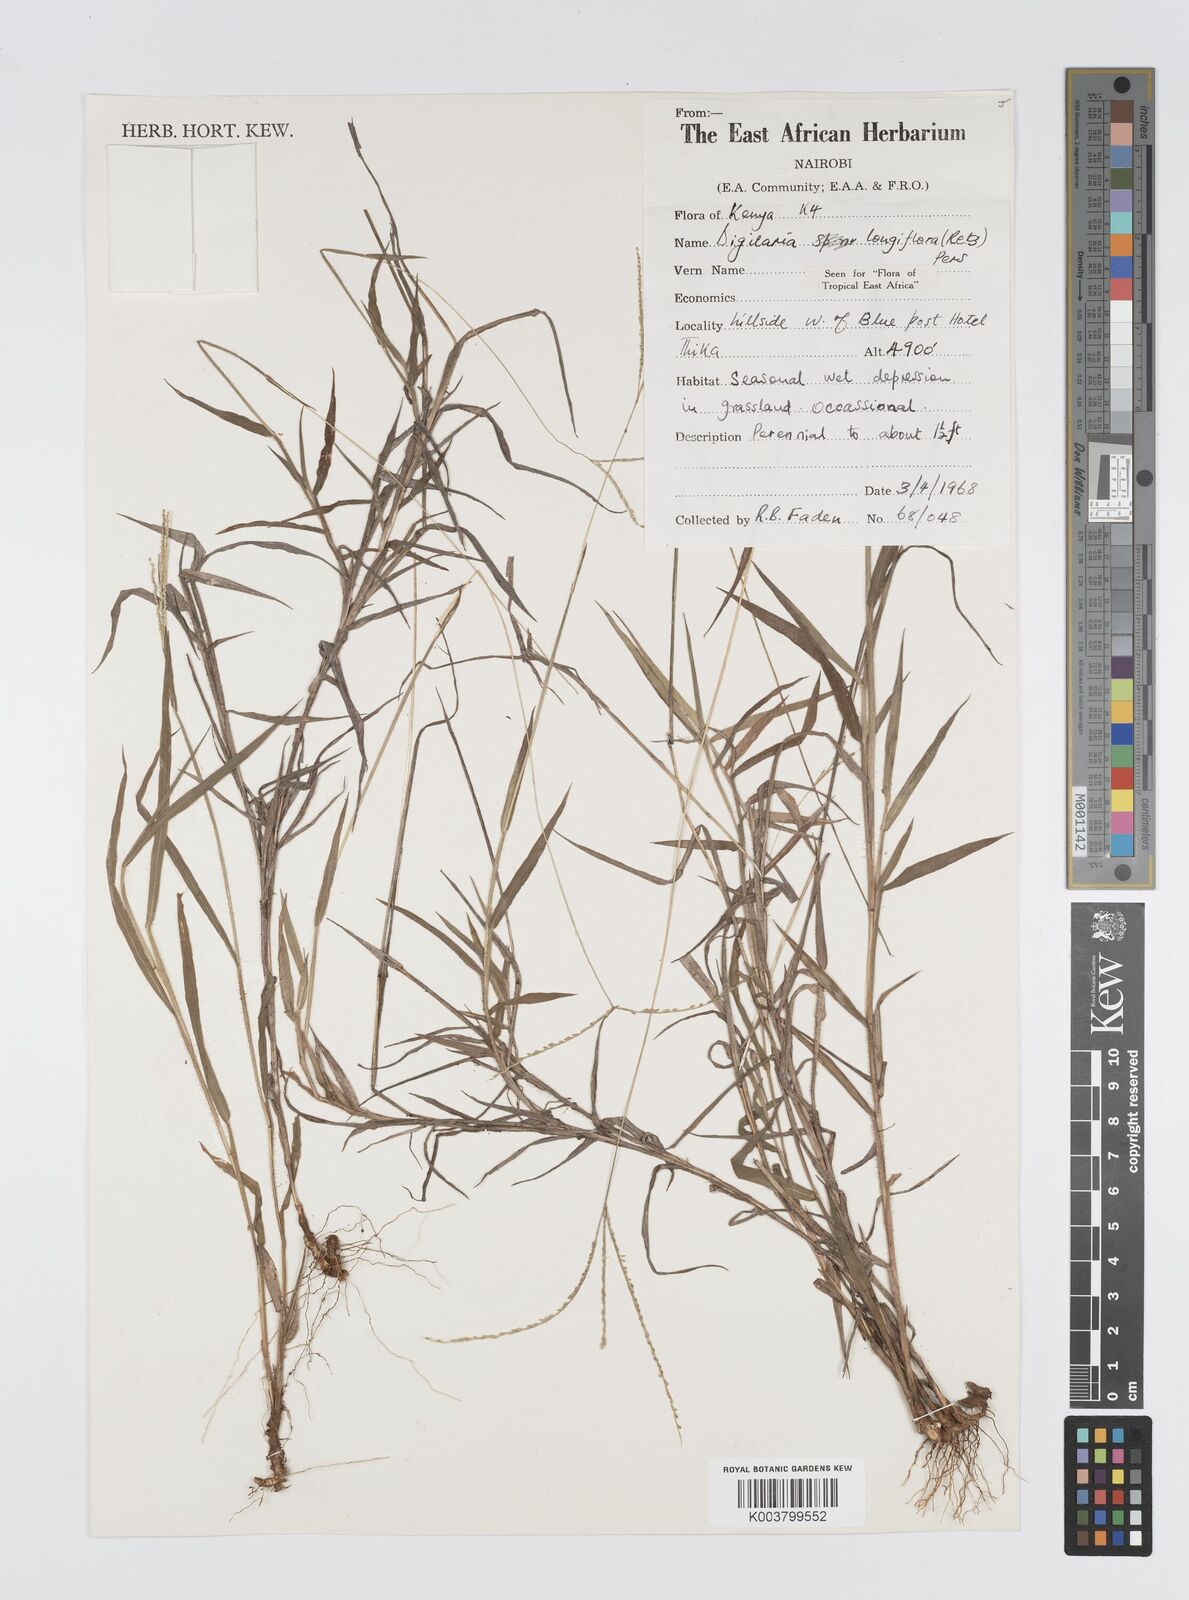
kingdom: Plantae
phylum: Tracheophyta
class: Liliopsida
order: Poales
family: Poaceae
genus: Digitaria
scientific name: Digitaria longiflora
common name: Wire crabgrass
